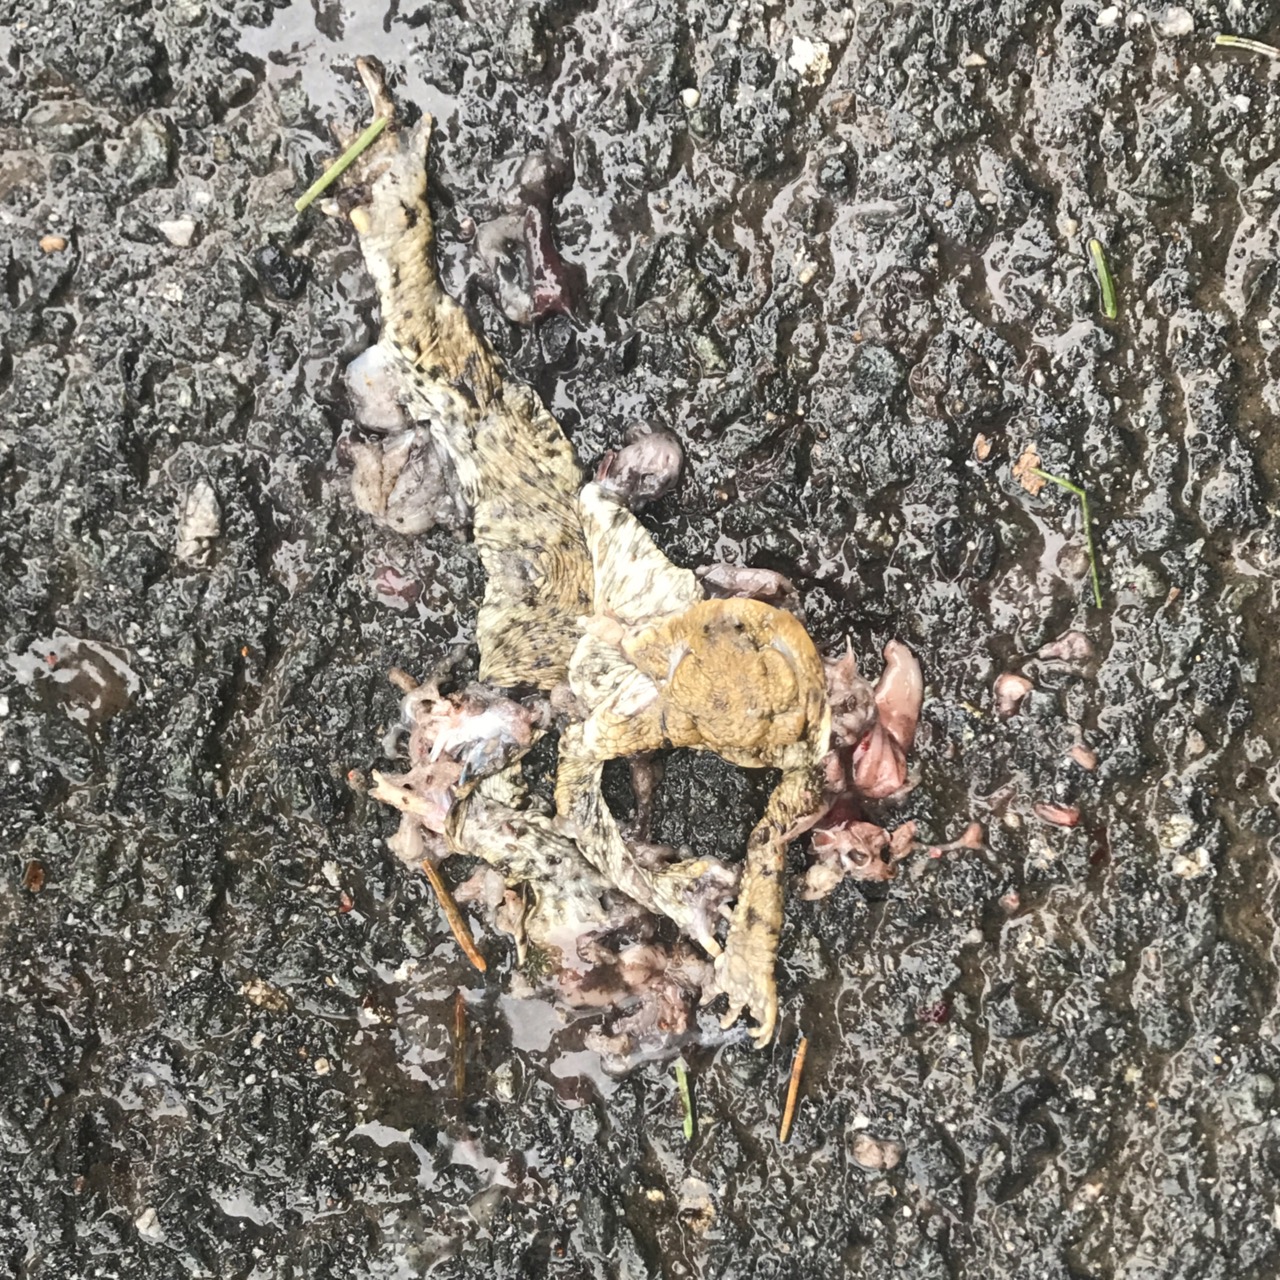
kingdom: Animalia
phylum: Chordata
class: Amphibia
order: Anura
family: Bufonidae
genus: Bufo
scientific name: Bufo bufo
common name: Common toad
